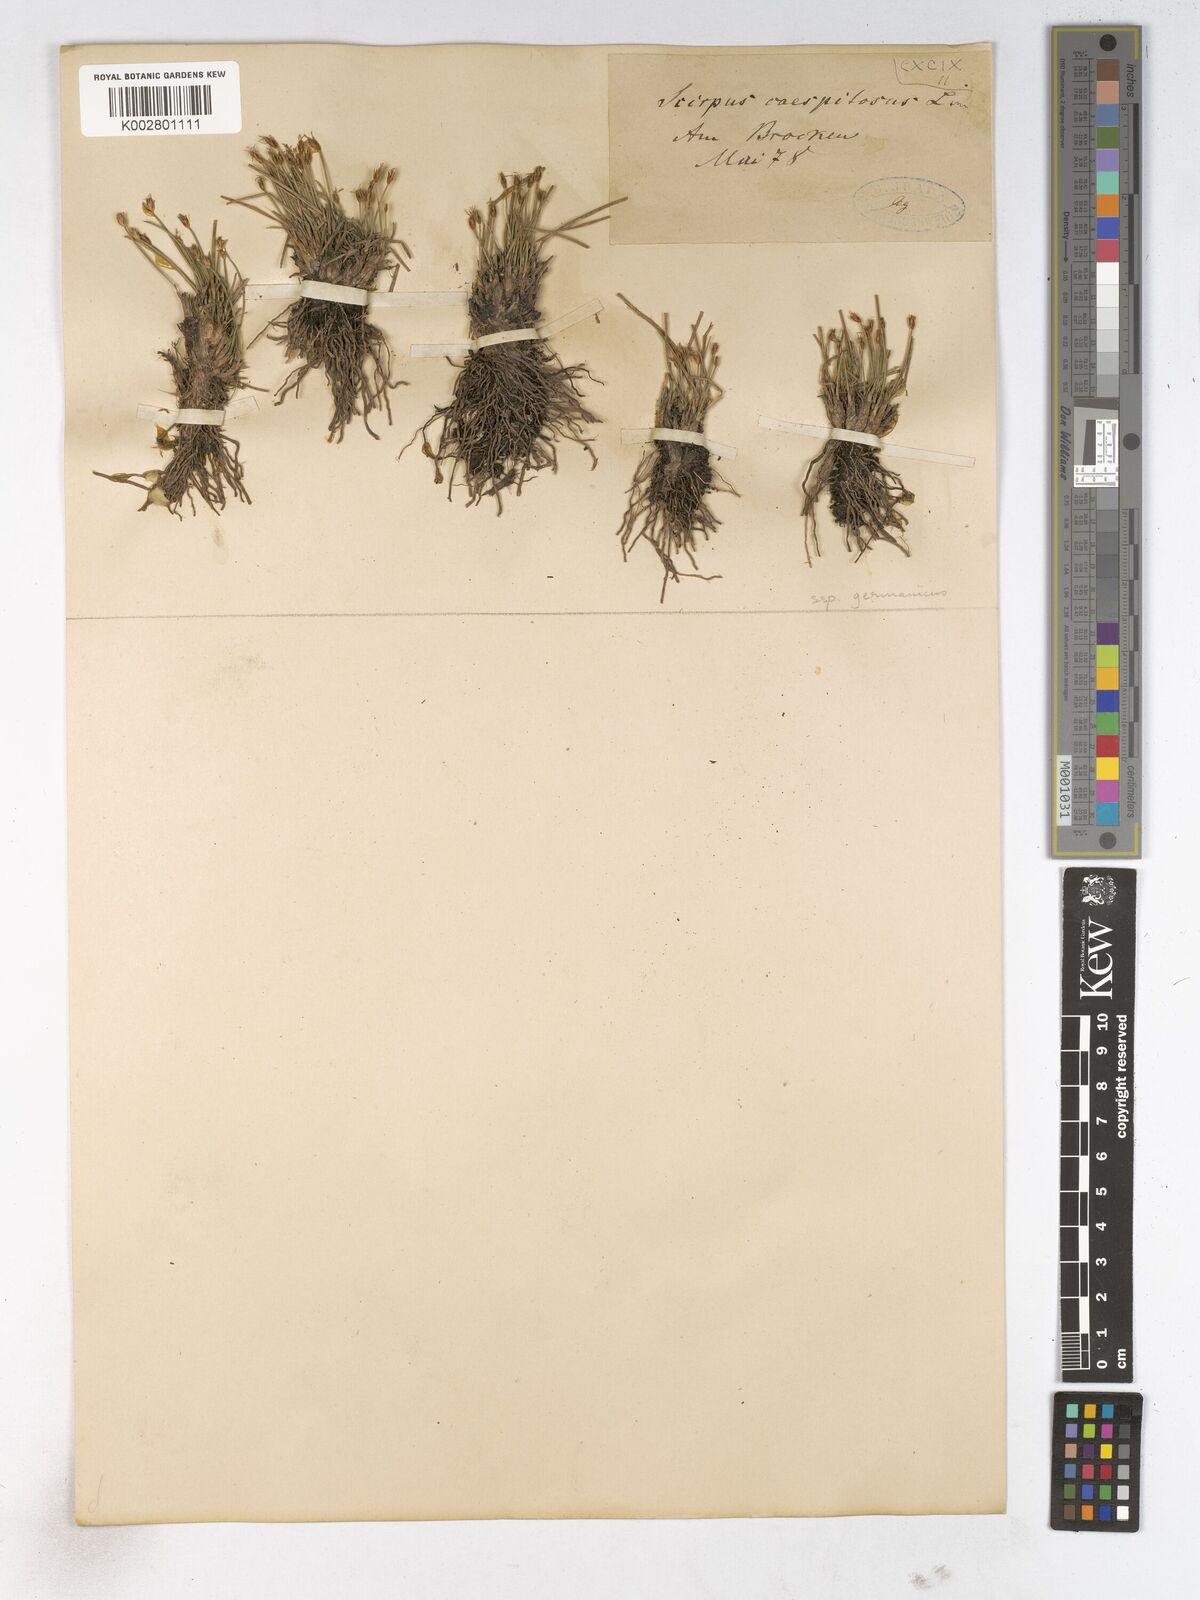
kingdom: Plantae
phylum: Tracheophyta
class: Liliopsida
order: Poales
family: Cyperaceae
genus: Trichophorum
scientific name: Trichophorum cespitosum
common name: Cespitose bulrush
